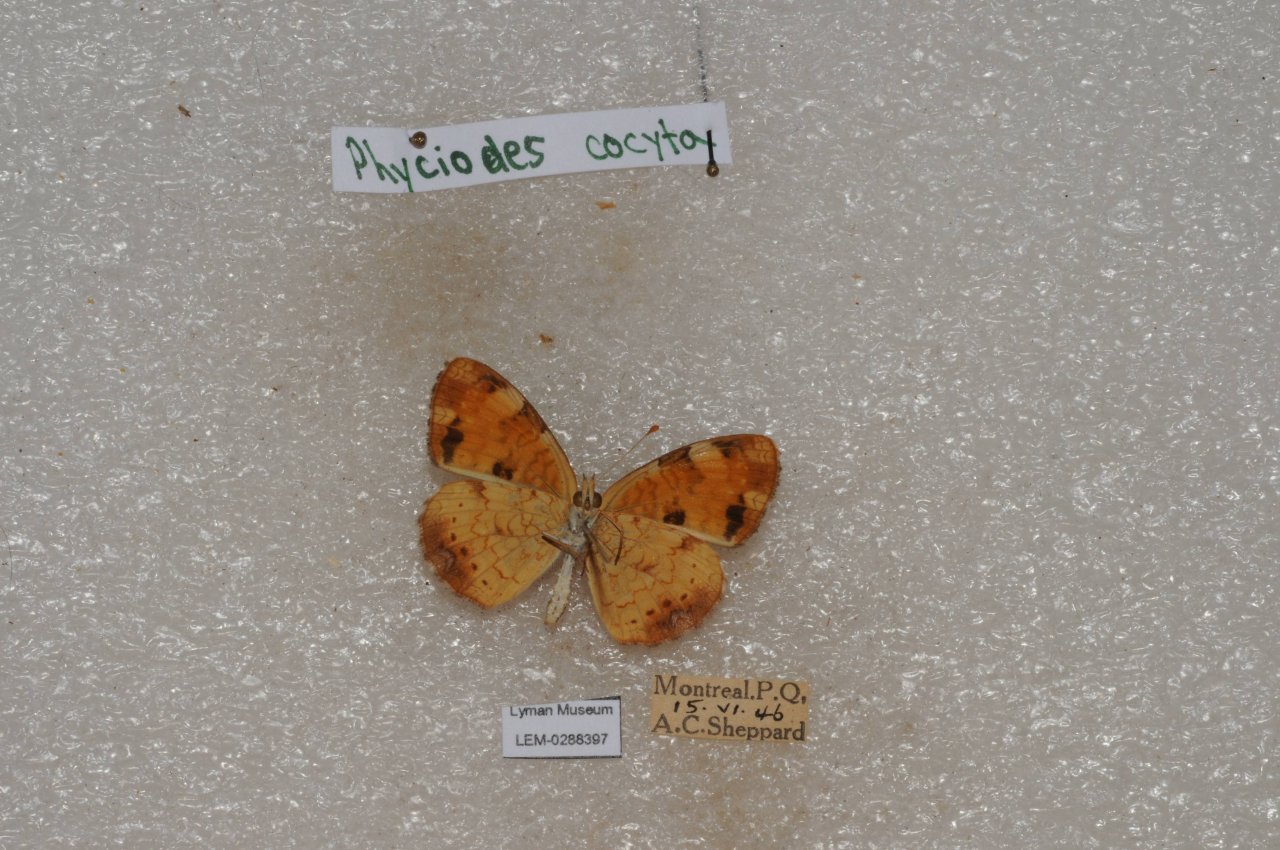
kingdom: Animalia
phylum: Arthropoda
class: Insecta
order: Lepidoptera
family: Nymphalidae
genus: Phyciodes
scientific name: Phyciodes tharos
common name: Northern Crescent
